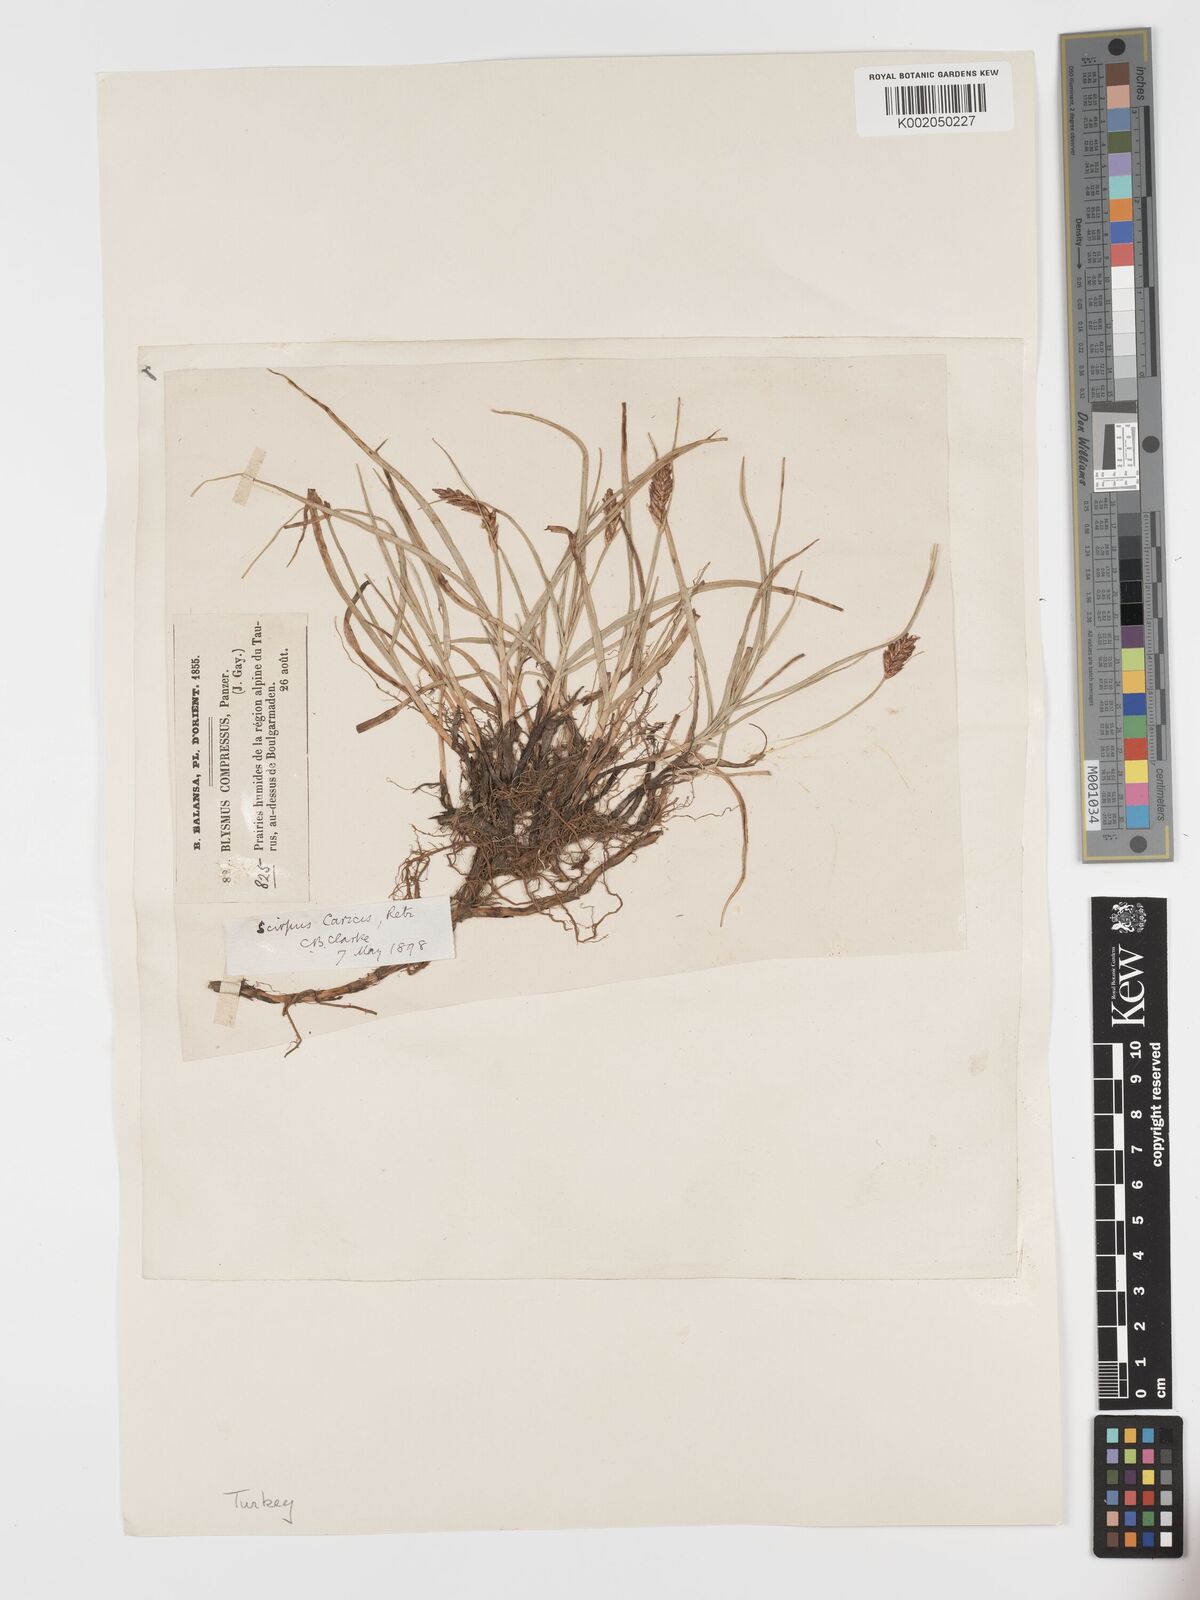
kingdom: Plantae
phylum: Tracheophyta
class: Liliopsida
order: Poales
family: Cyperaceae
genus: Blysmus
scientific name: Blysmus compressus
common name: Flat-sedge
